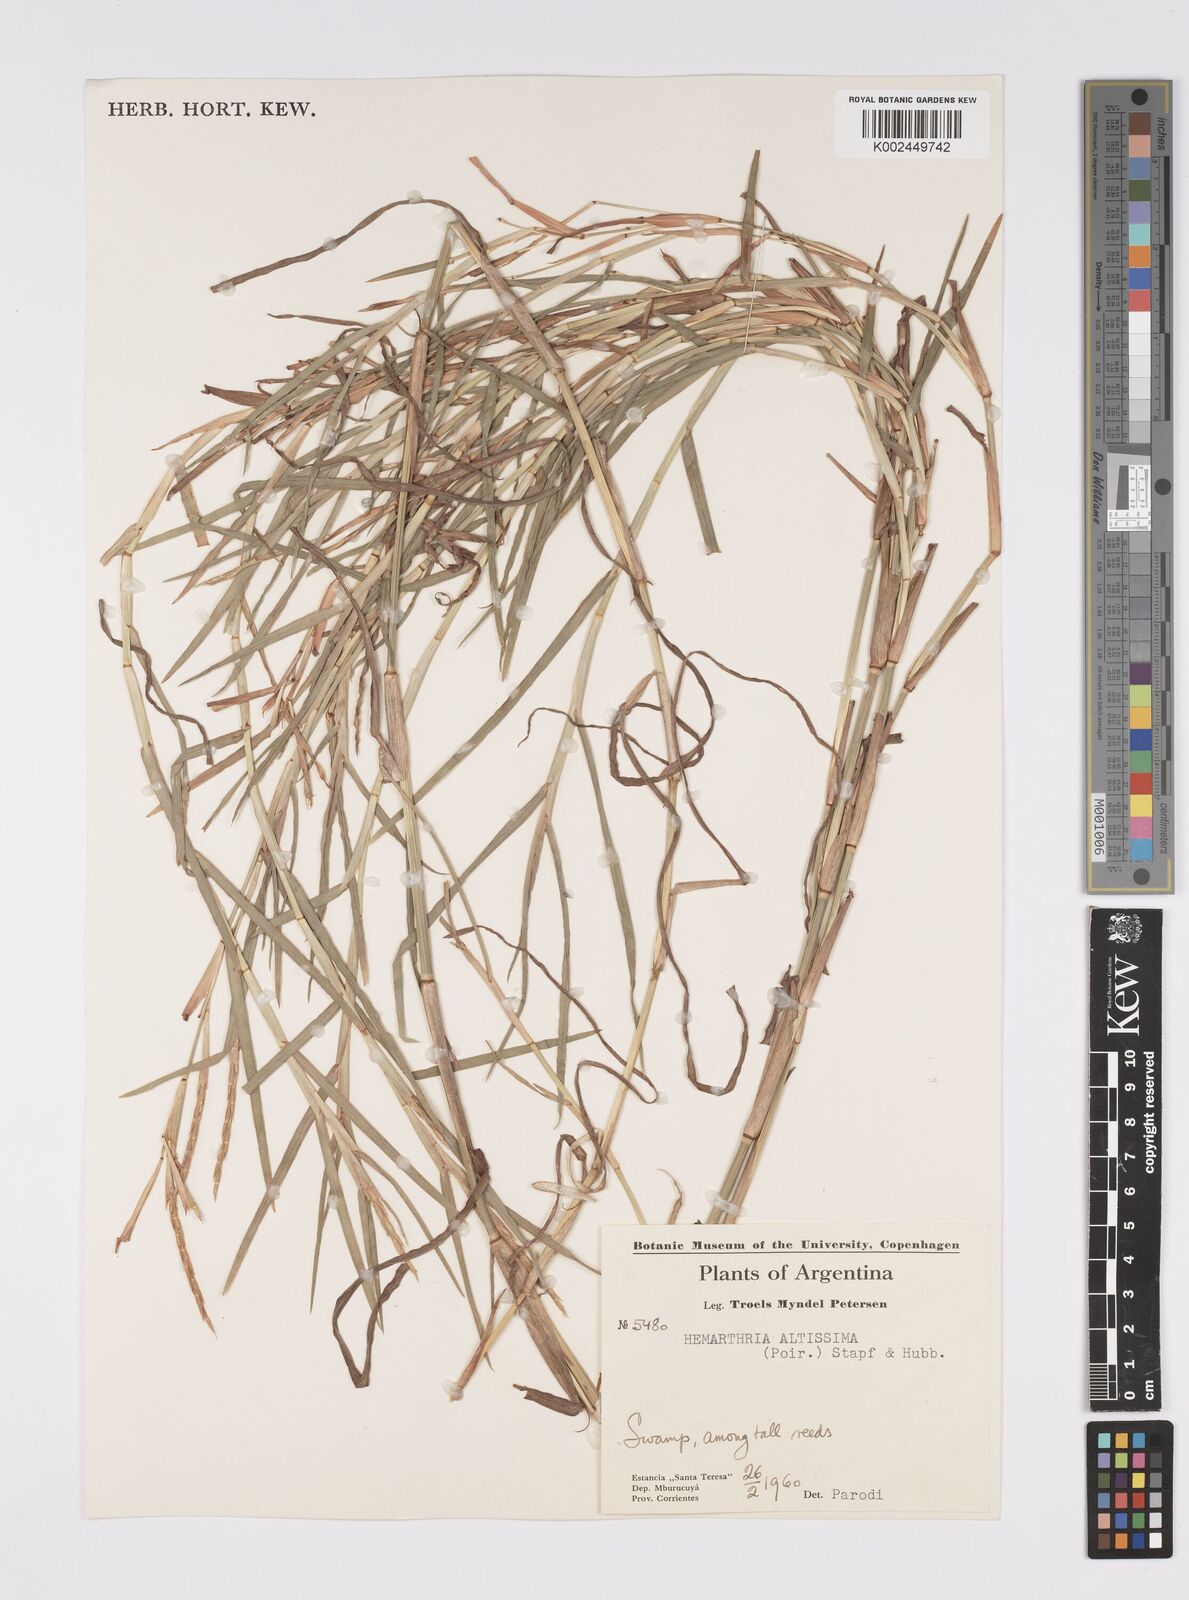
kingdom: Plantae
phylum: Tracheophyta
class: Liliopsida
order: Poales
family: Poaceae
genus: Hemarthria
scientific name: Hemarthria altissima
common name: African jointgrass
